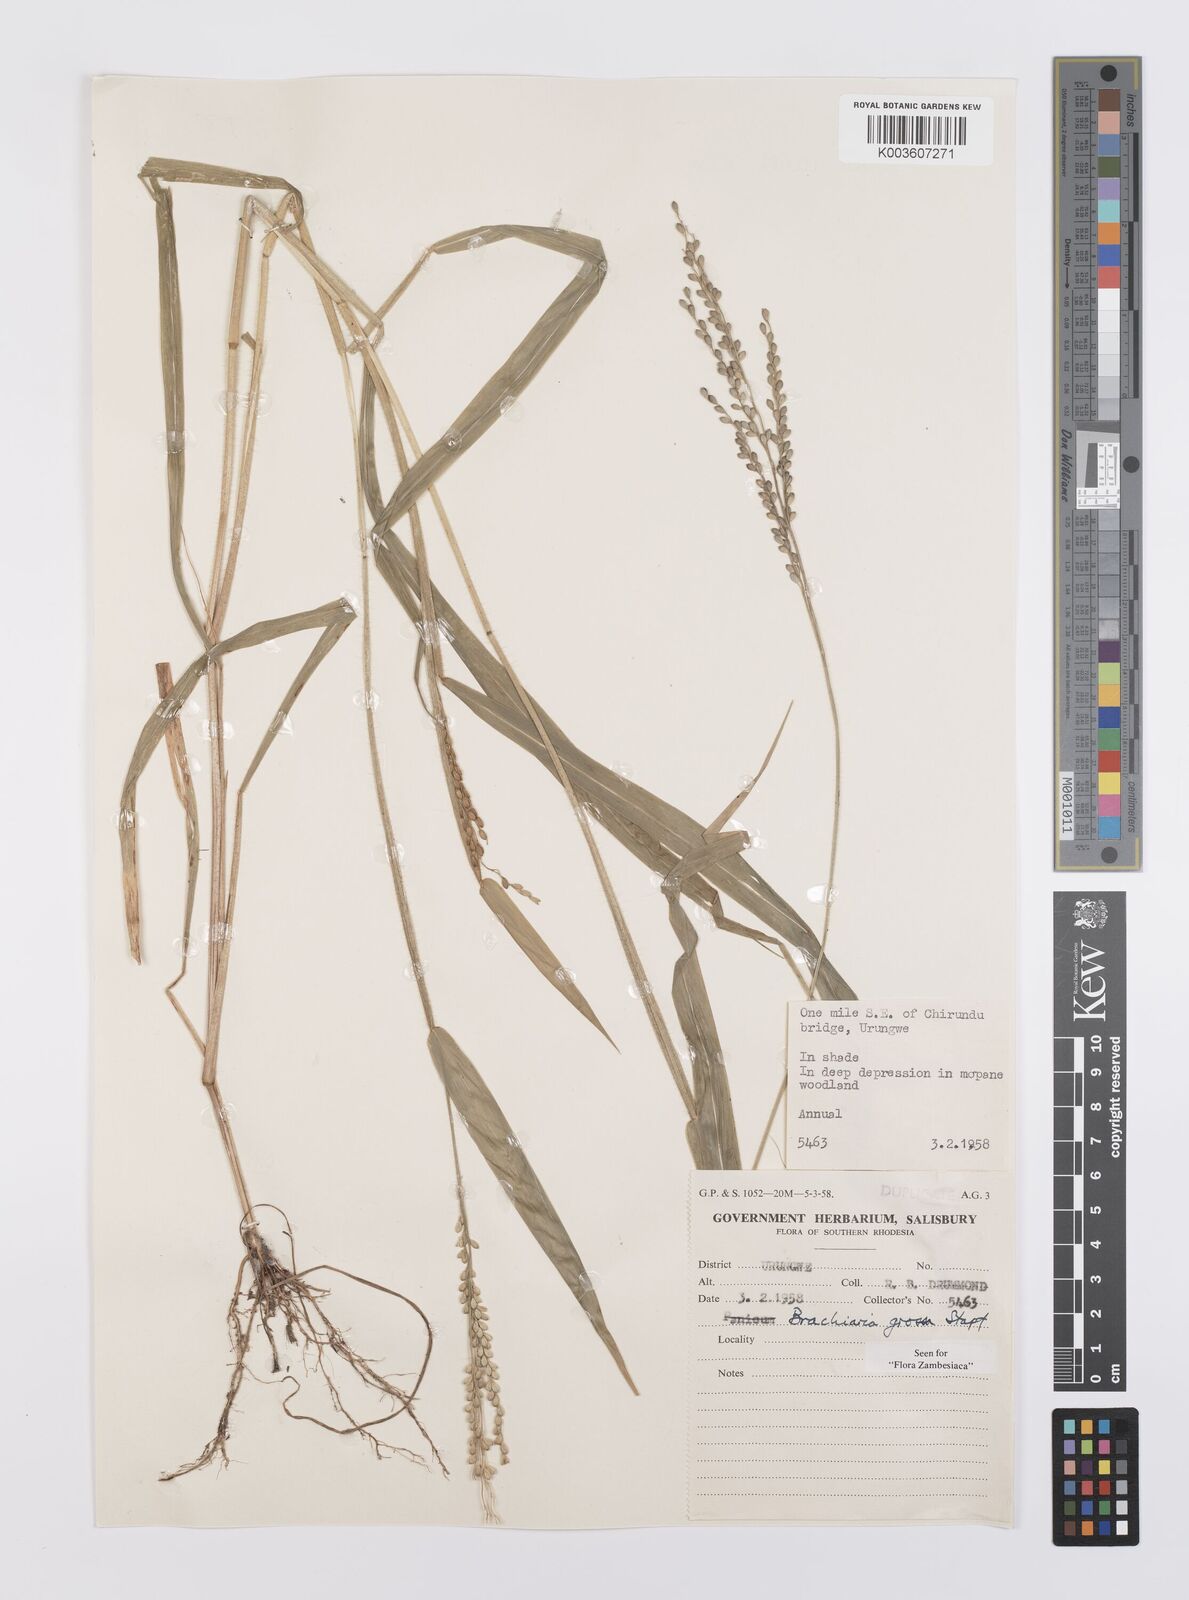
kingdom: Plantae
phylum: Tracheophyta
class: Liliopsida
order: Poales
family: Poaceae
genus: Urochloa
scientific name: Urochloa Brachiaria grossa
